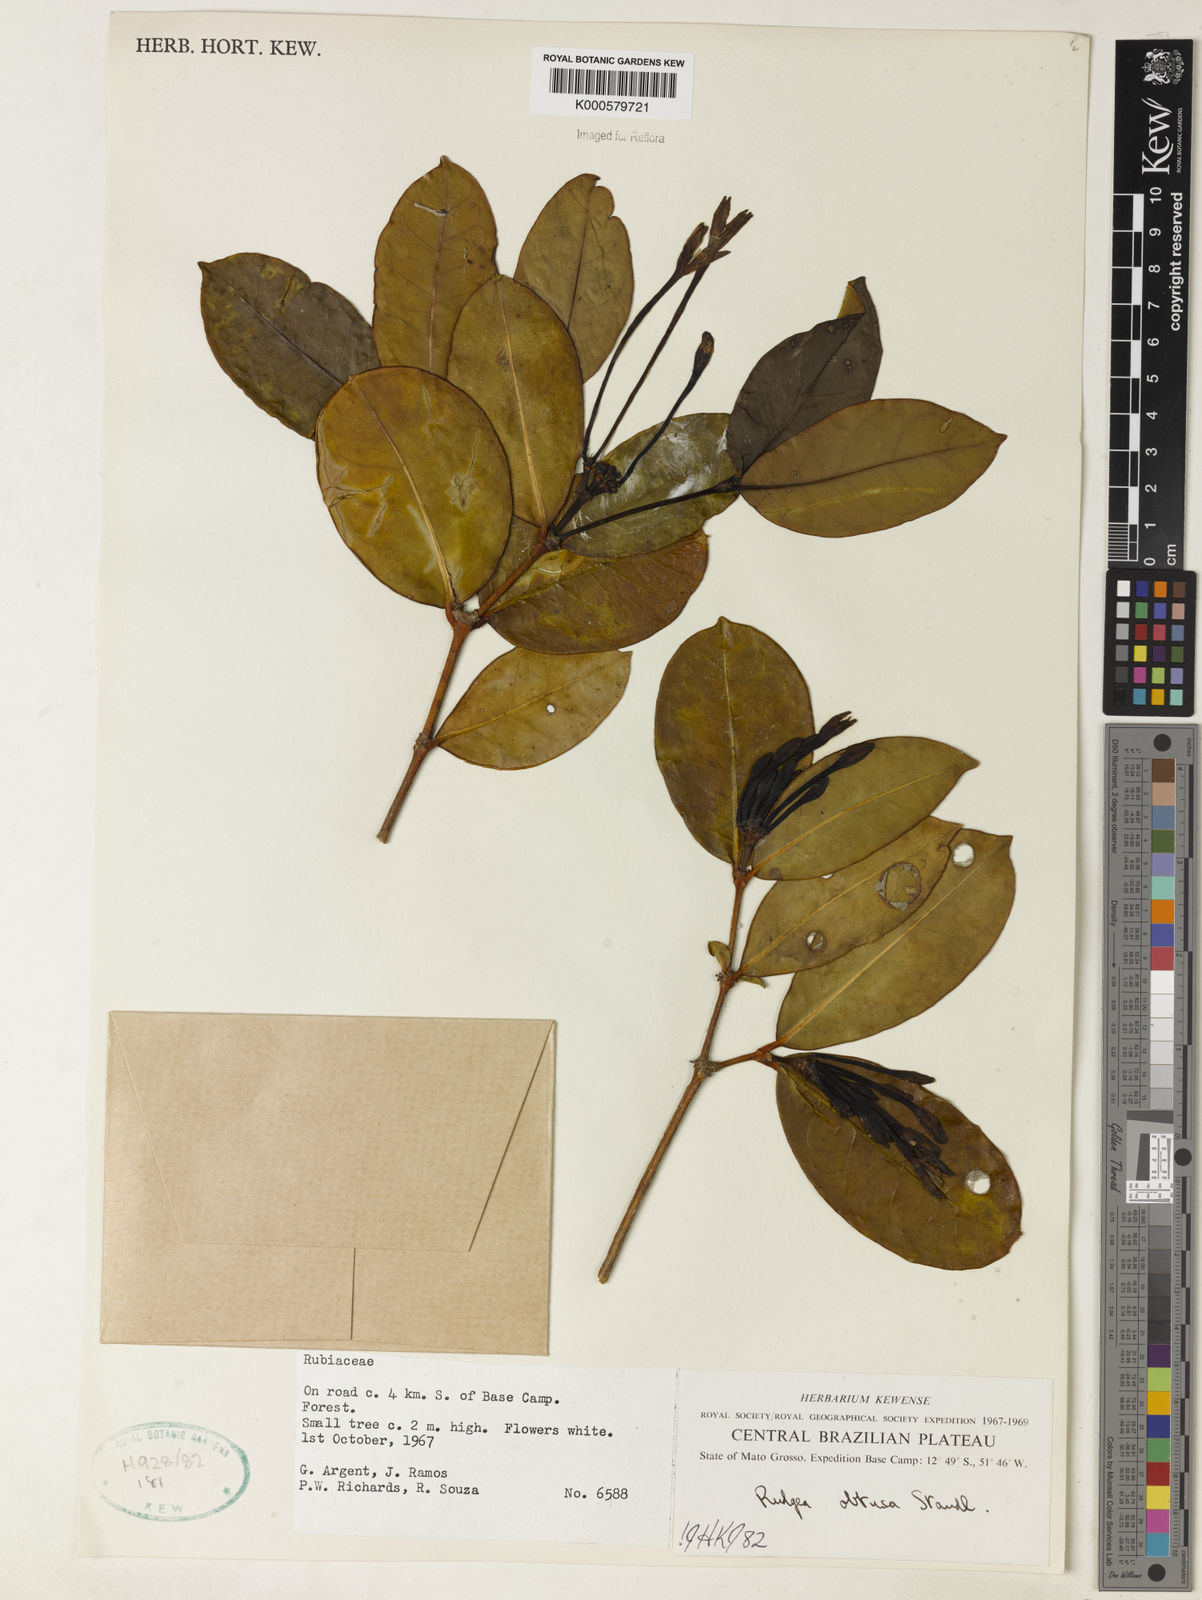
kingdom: Plantae
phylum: Tracheophyta
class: Magnoliopsida
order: Gentianales
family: Rubiaceae
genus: Rudgea
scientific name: Rudgea goyazensis
